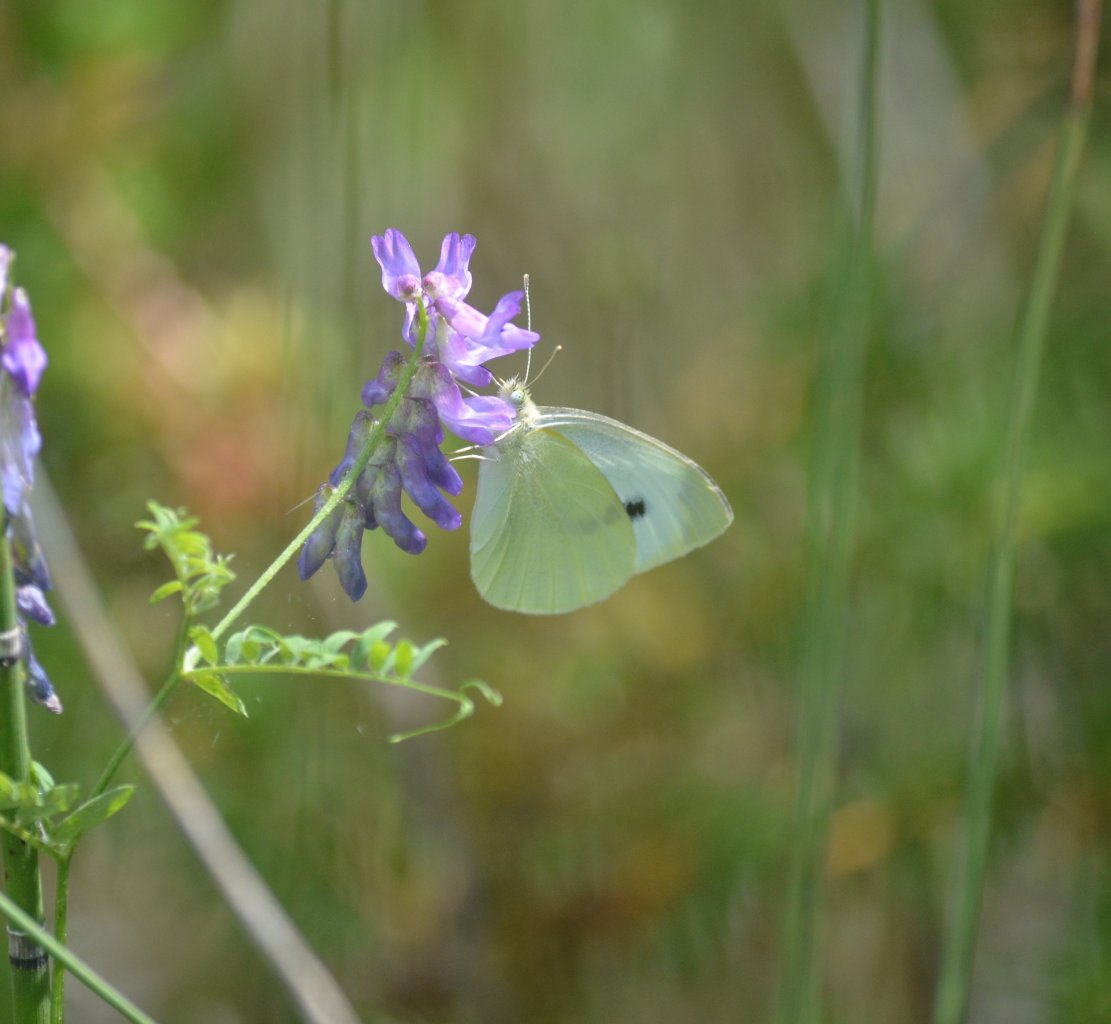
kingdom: Animalia
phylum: Arthropoda
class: Insecta
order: Lepidoptera
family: Pieridae
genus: Pieris
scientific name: Pieris rapae
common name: Cabbage White
